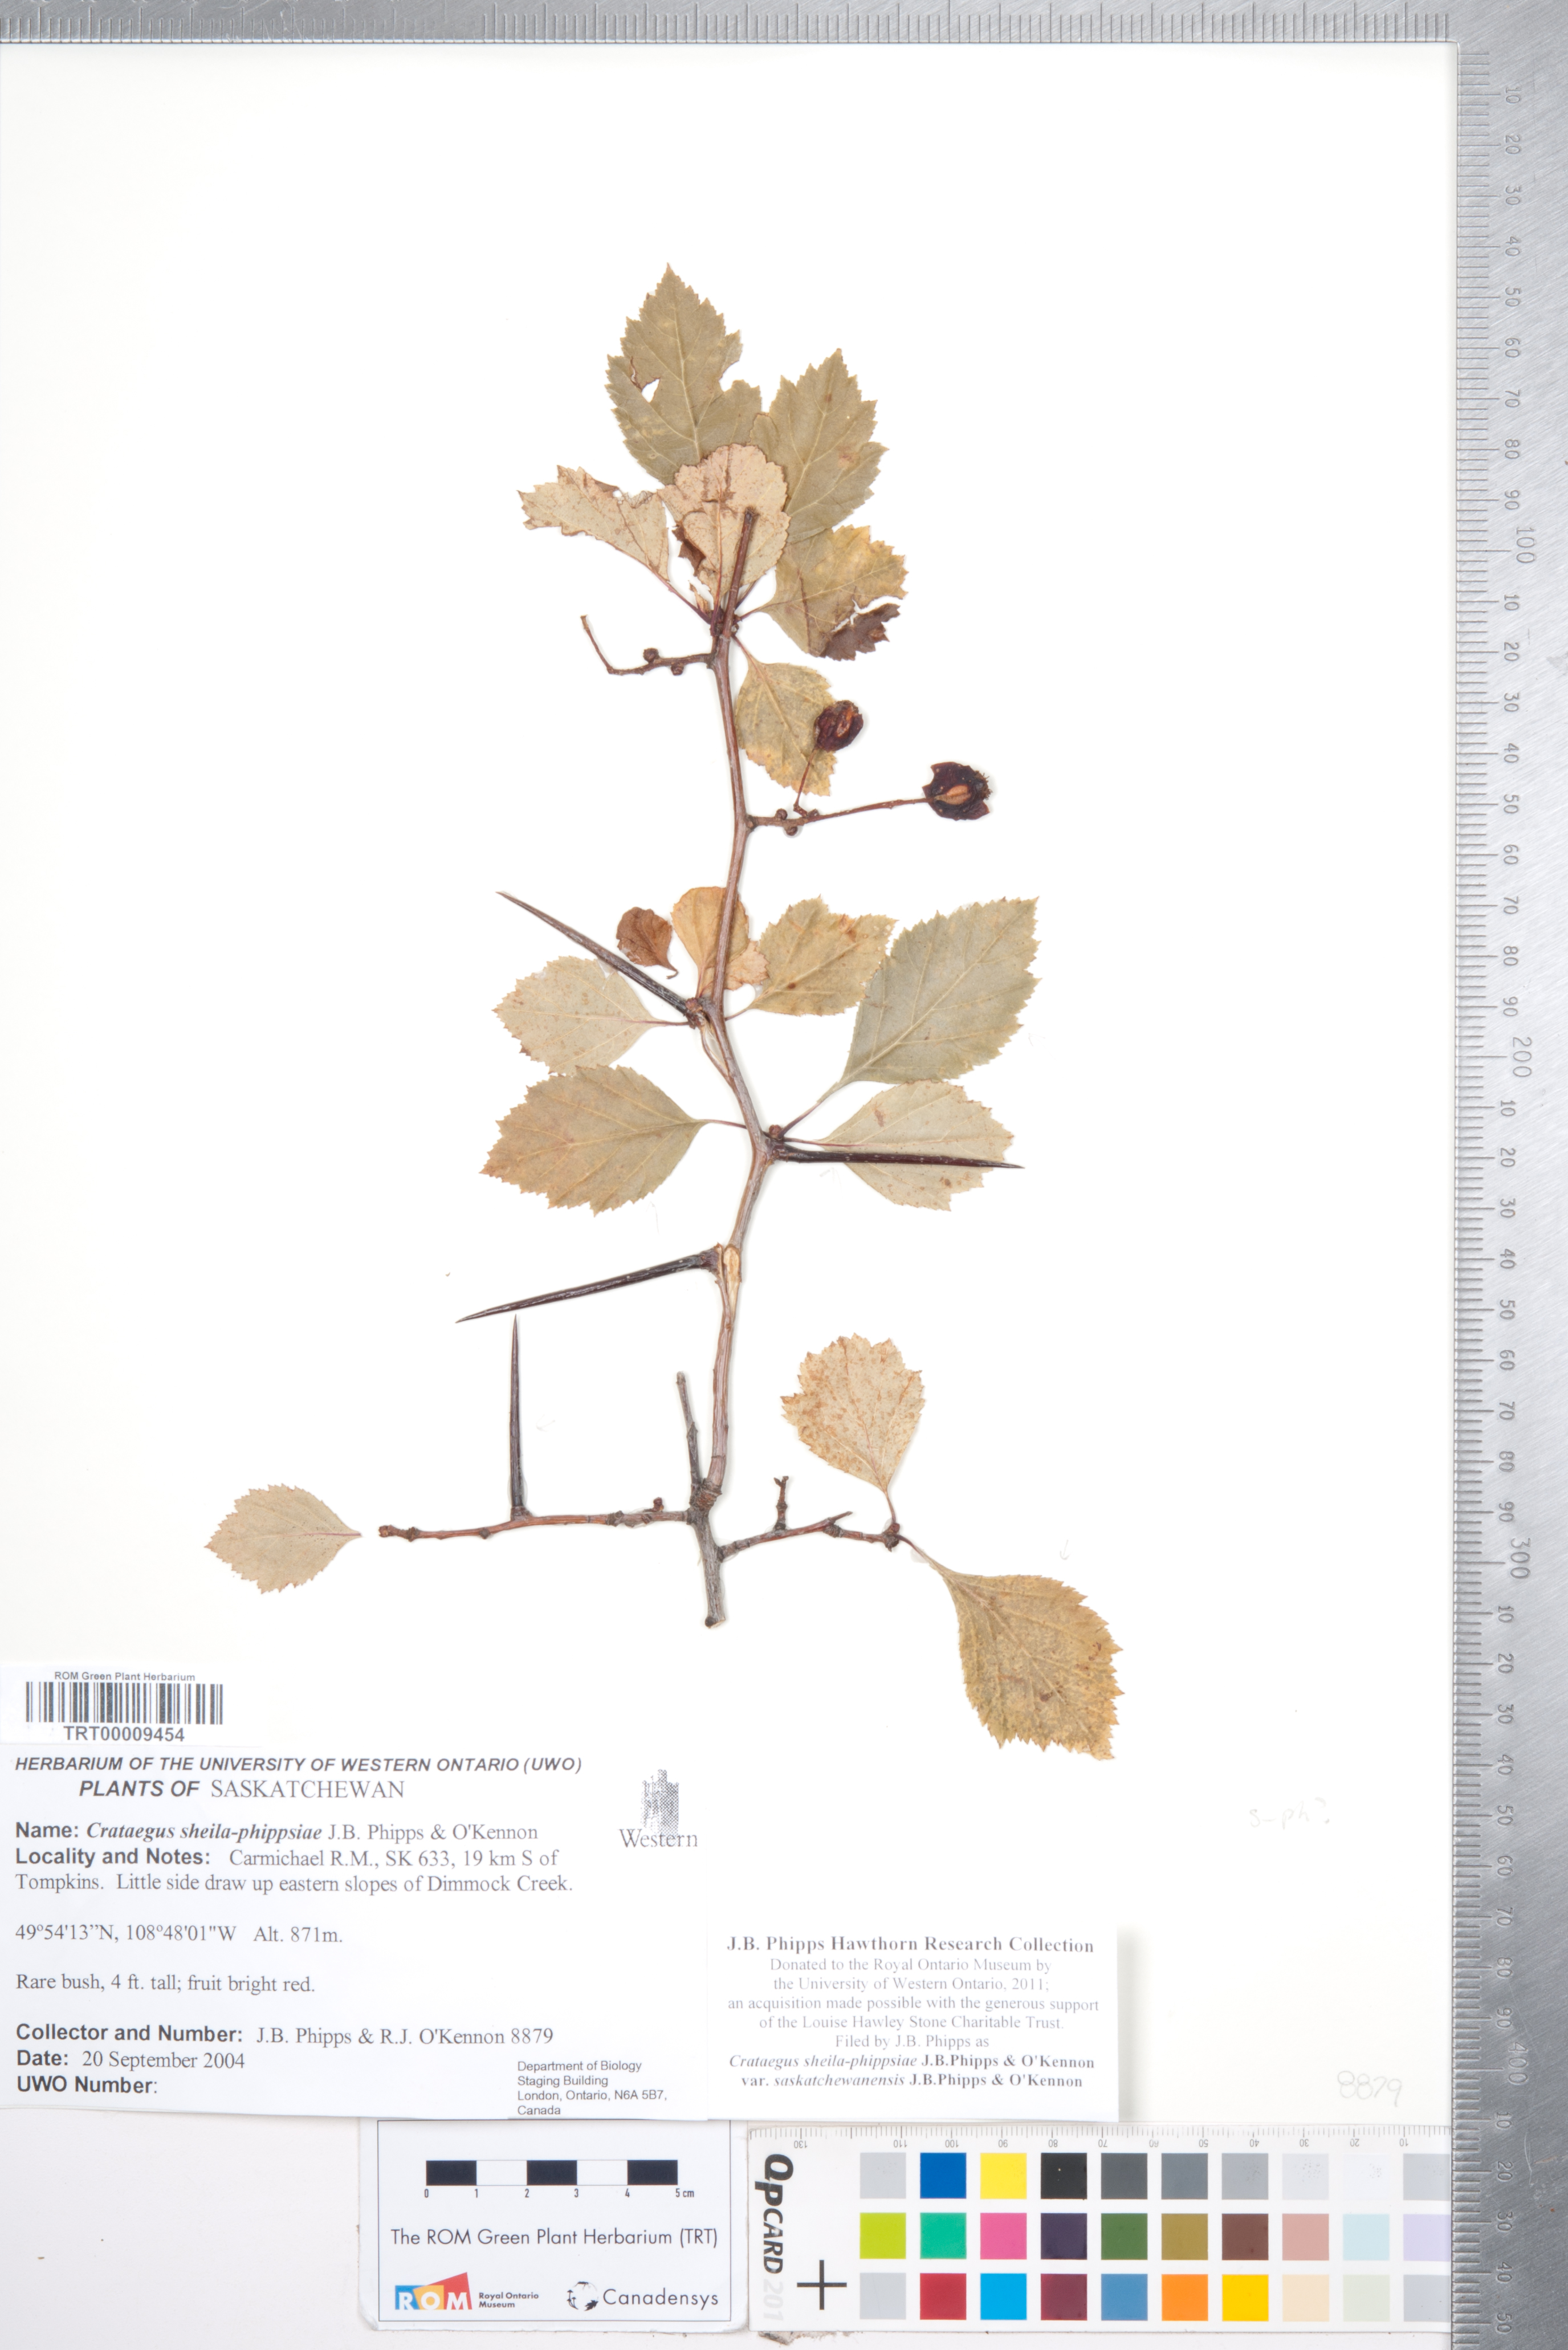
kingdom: Plantae
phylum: Tracheophyta
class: Magnoliopsida
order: Rosales
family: Rosaceae
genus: Crataegus
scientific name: Crataegus sheila-phippsiae
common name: Sheila phipps' hawthorn
